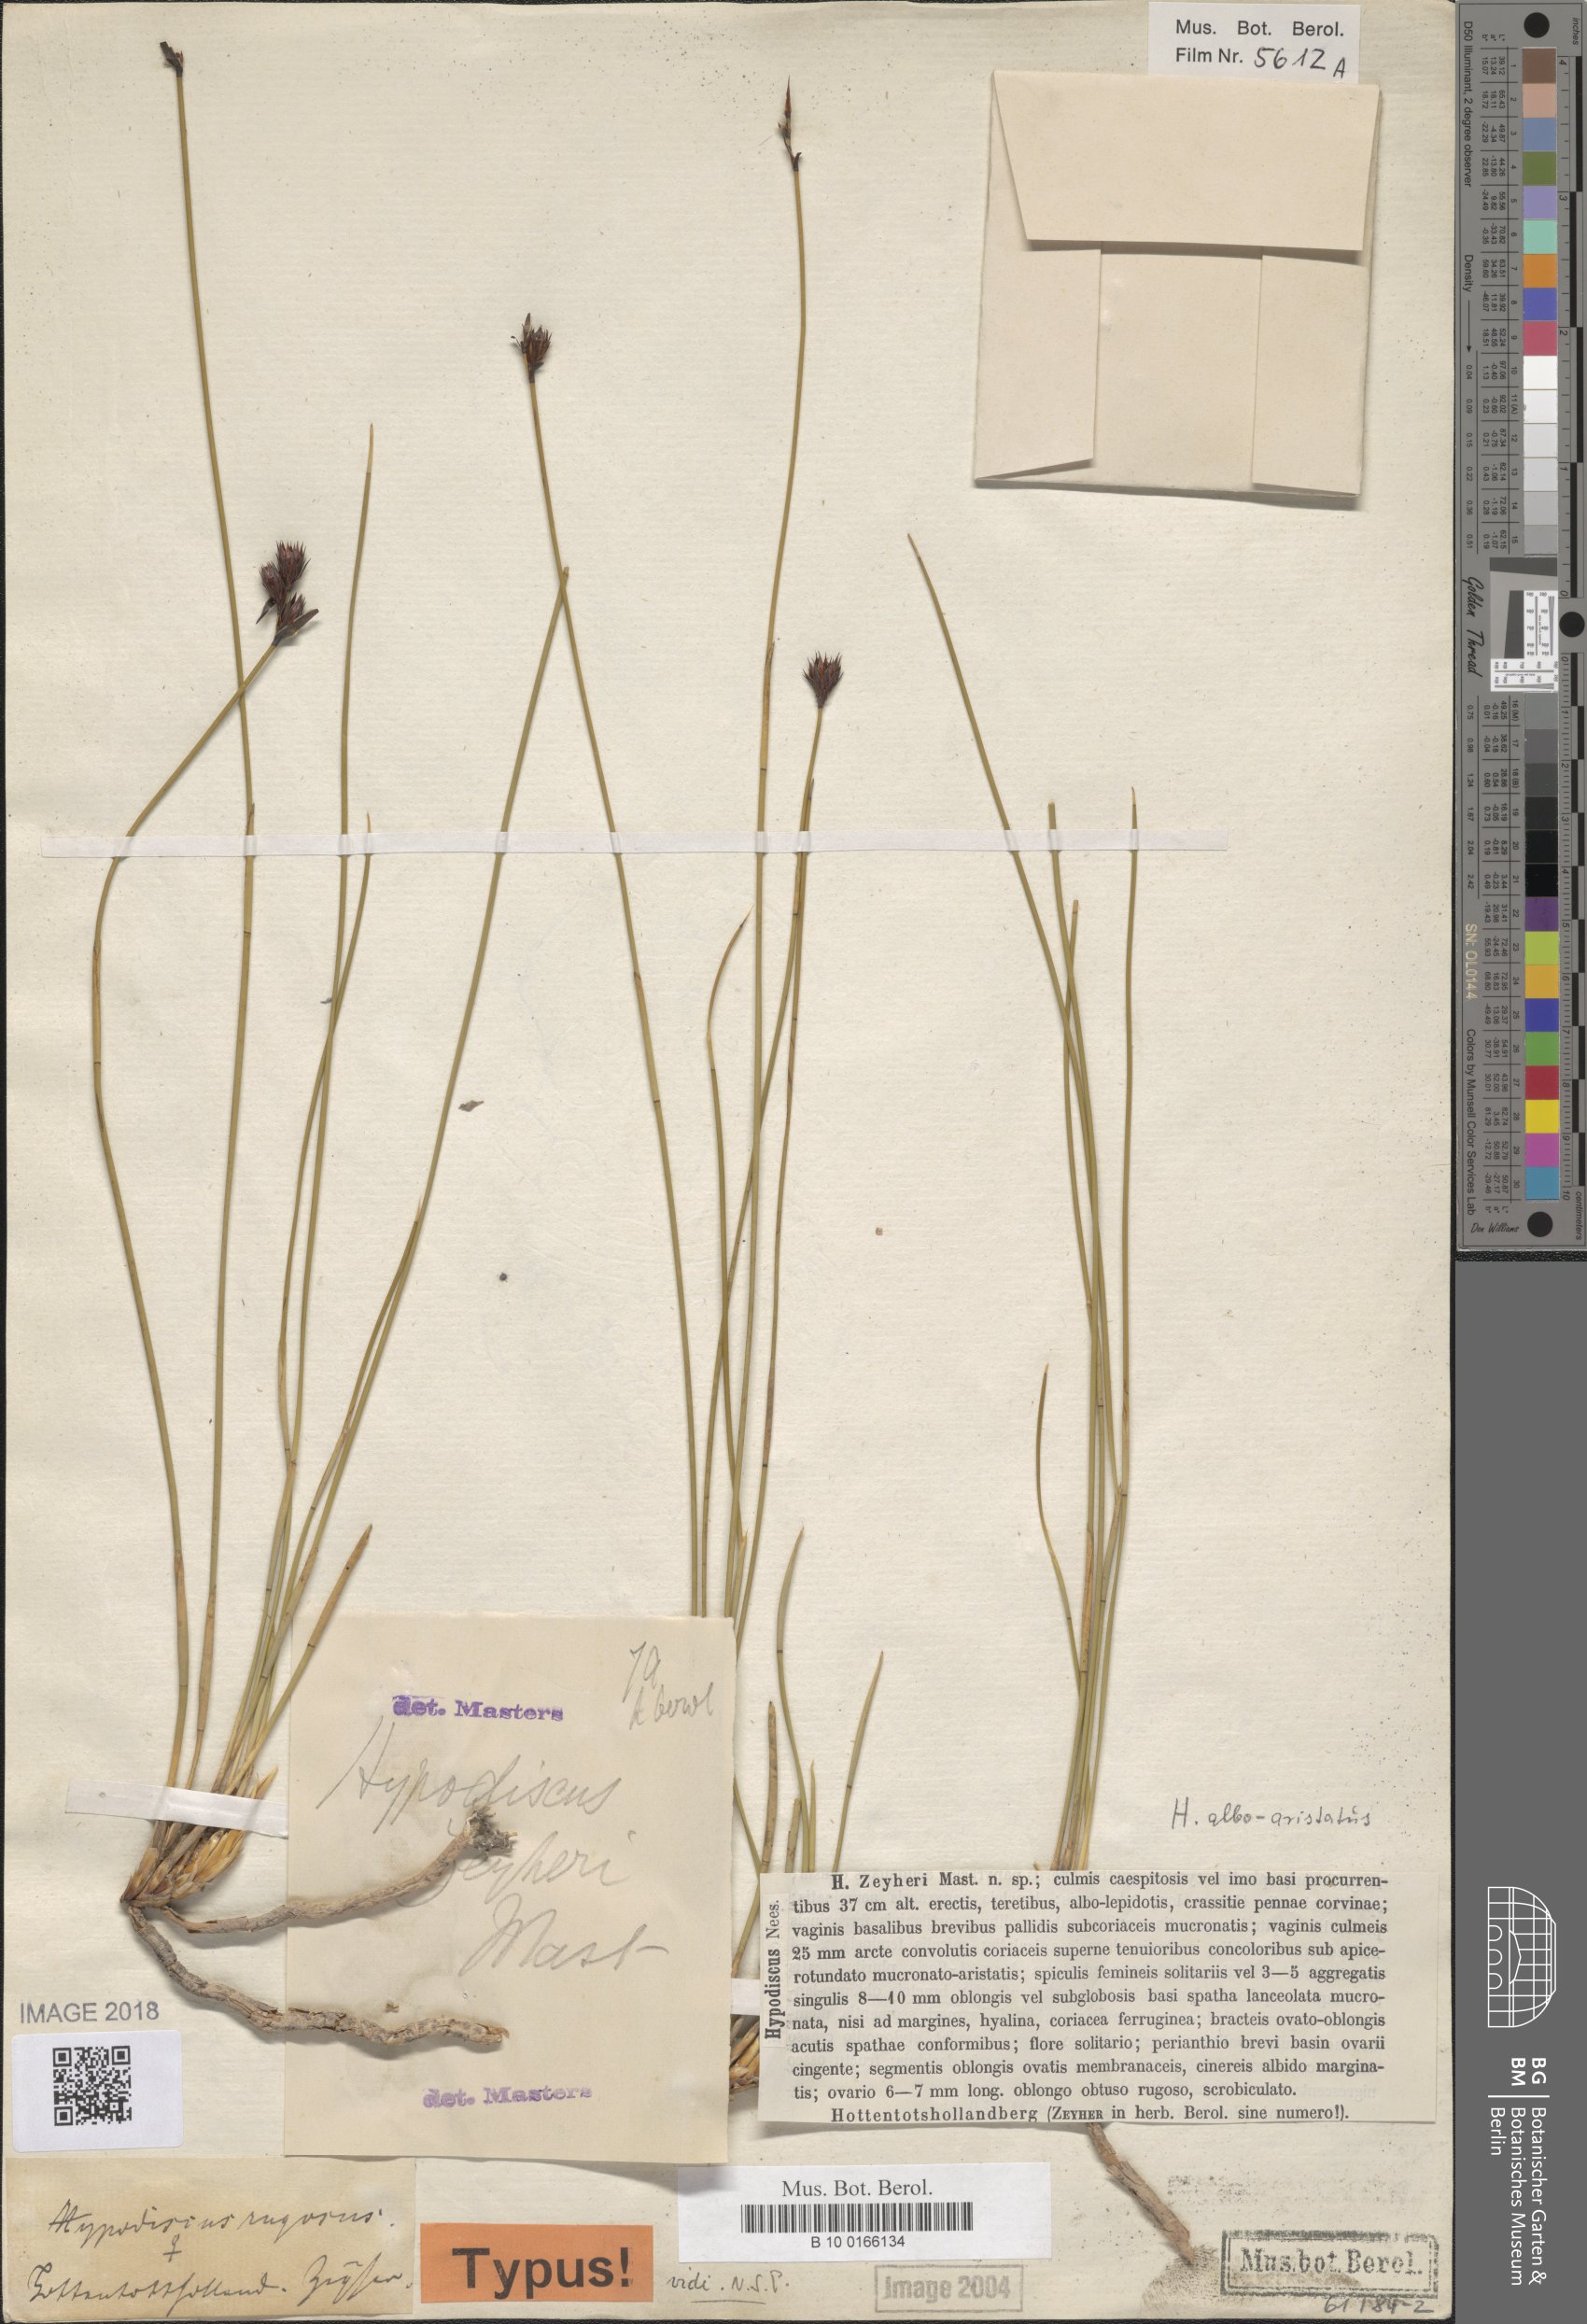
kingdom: Plantae
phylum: Tracheophyta
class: Liliopsida
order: Poales
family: Restionaceae
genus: Hypodiscus
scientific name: Hypodiscus alboaristatus
